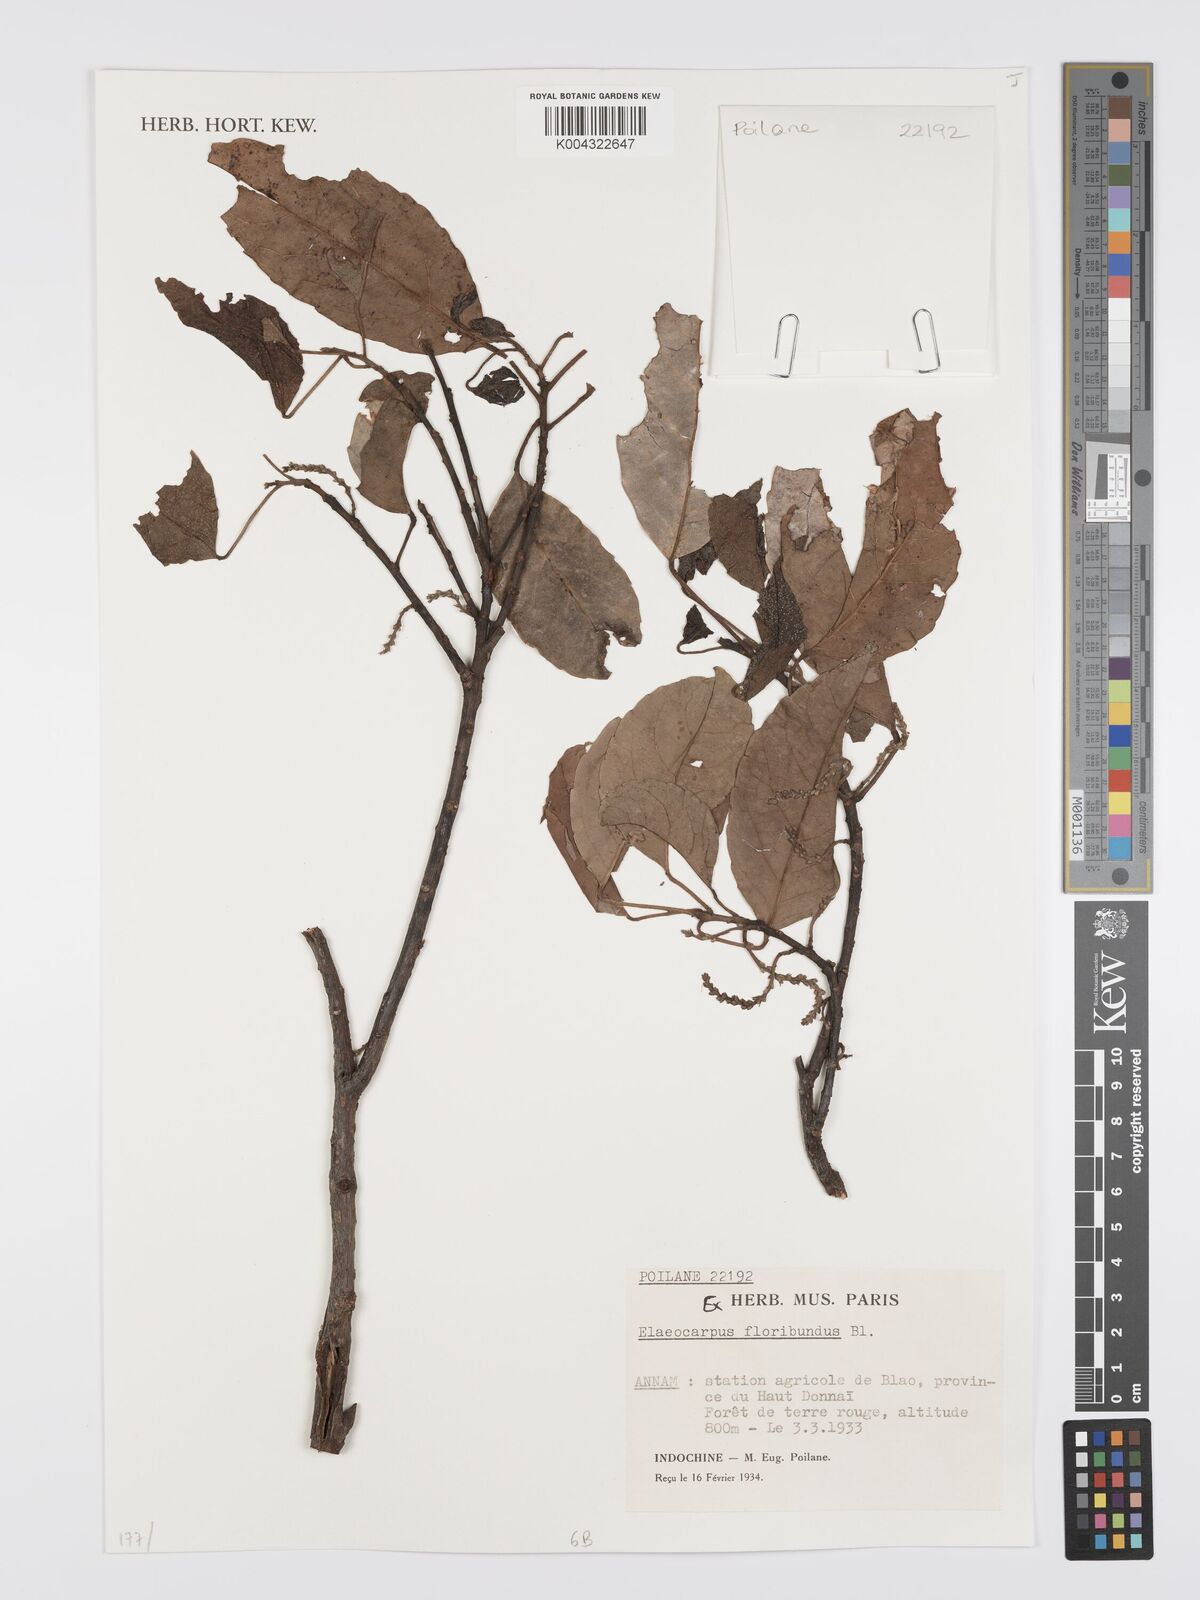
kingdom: Plantae
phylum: Tracheophyta
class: Magnoliopsida
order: Oxalidales
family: Elaeocarpaceae
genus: Elaeocarpus
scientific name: Elaeocarpus floribundus
